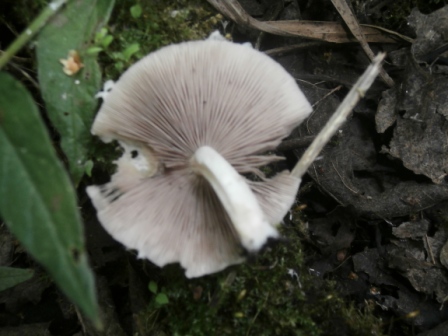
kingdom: Fungi
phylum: Basidiomycota
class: Agaricomycetes
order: Agaricales
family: Psathyrellaceae
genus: Candolleomyces
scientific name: Candolleomyces candolleanus
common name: Candolles mørkhat
